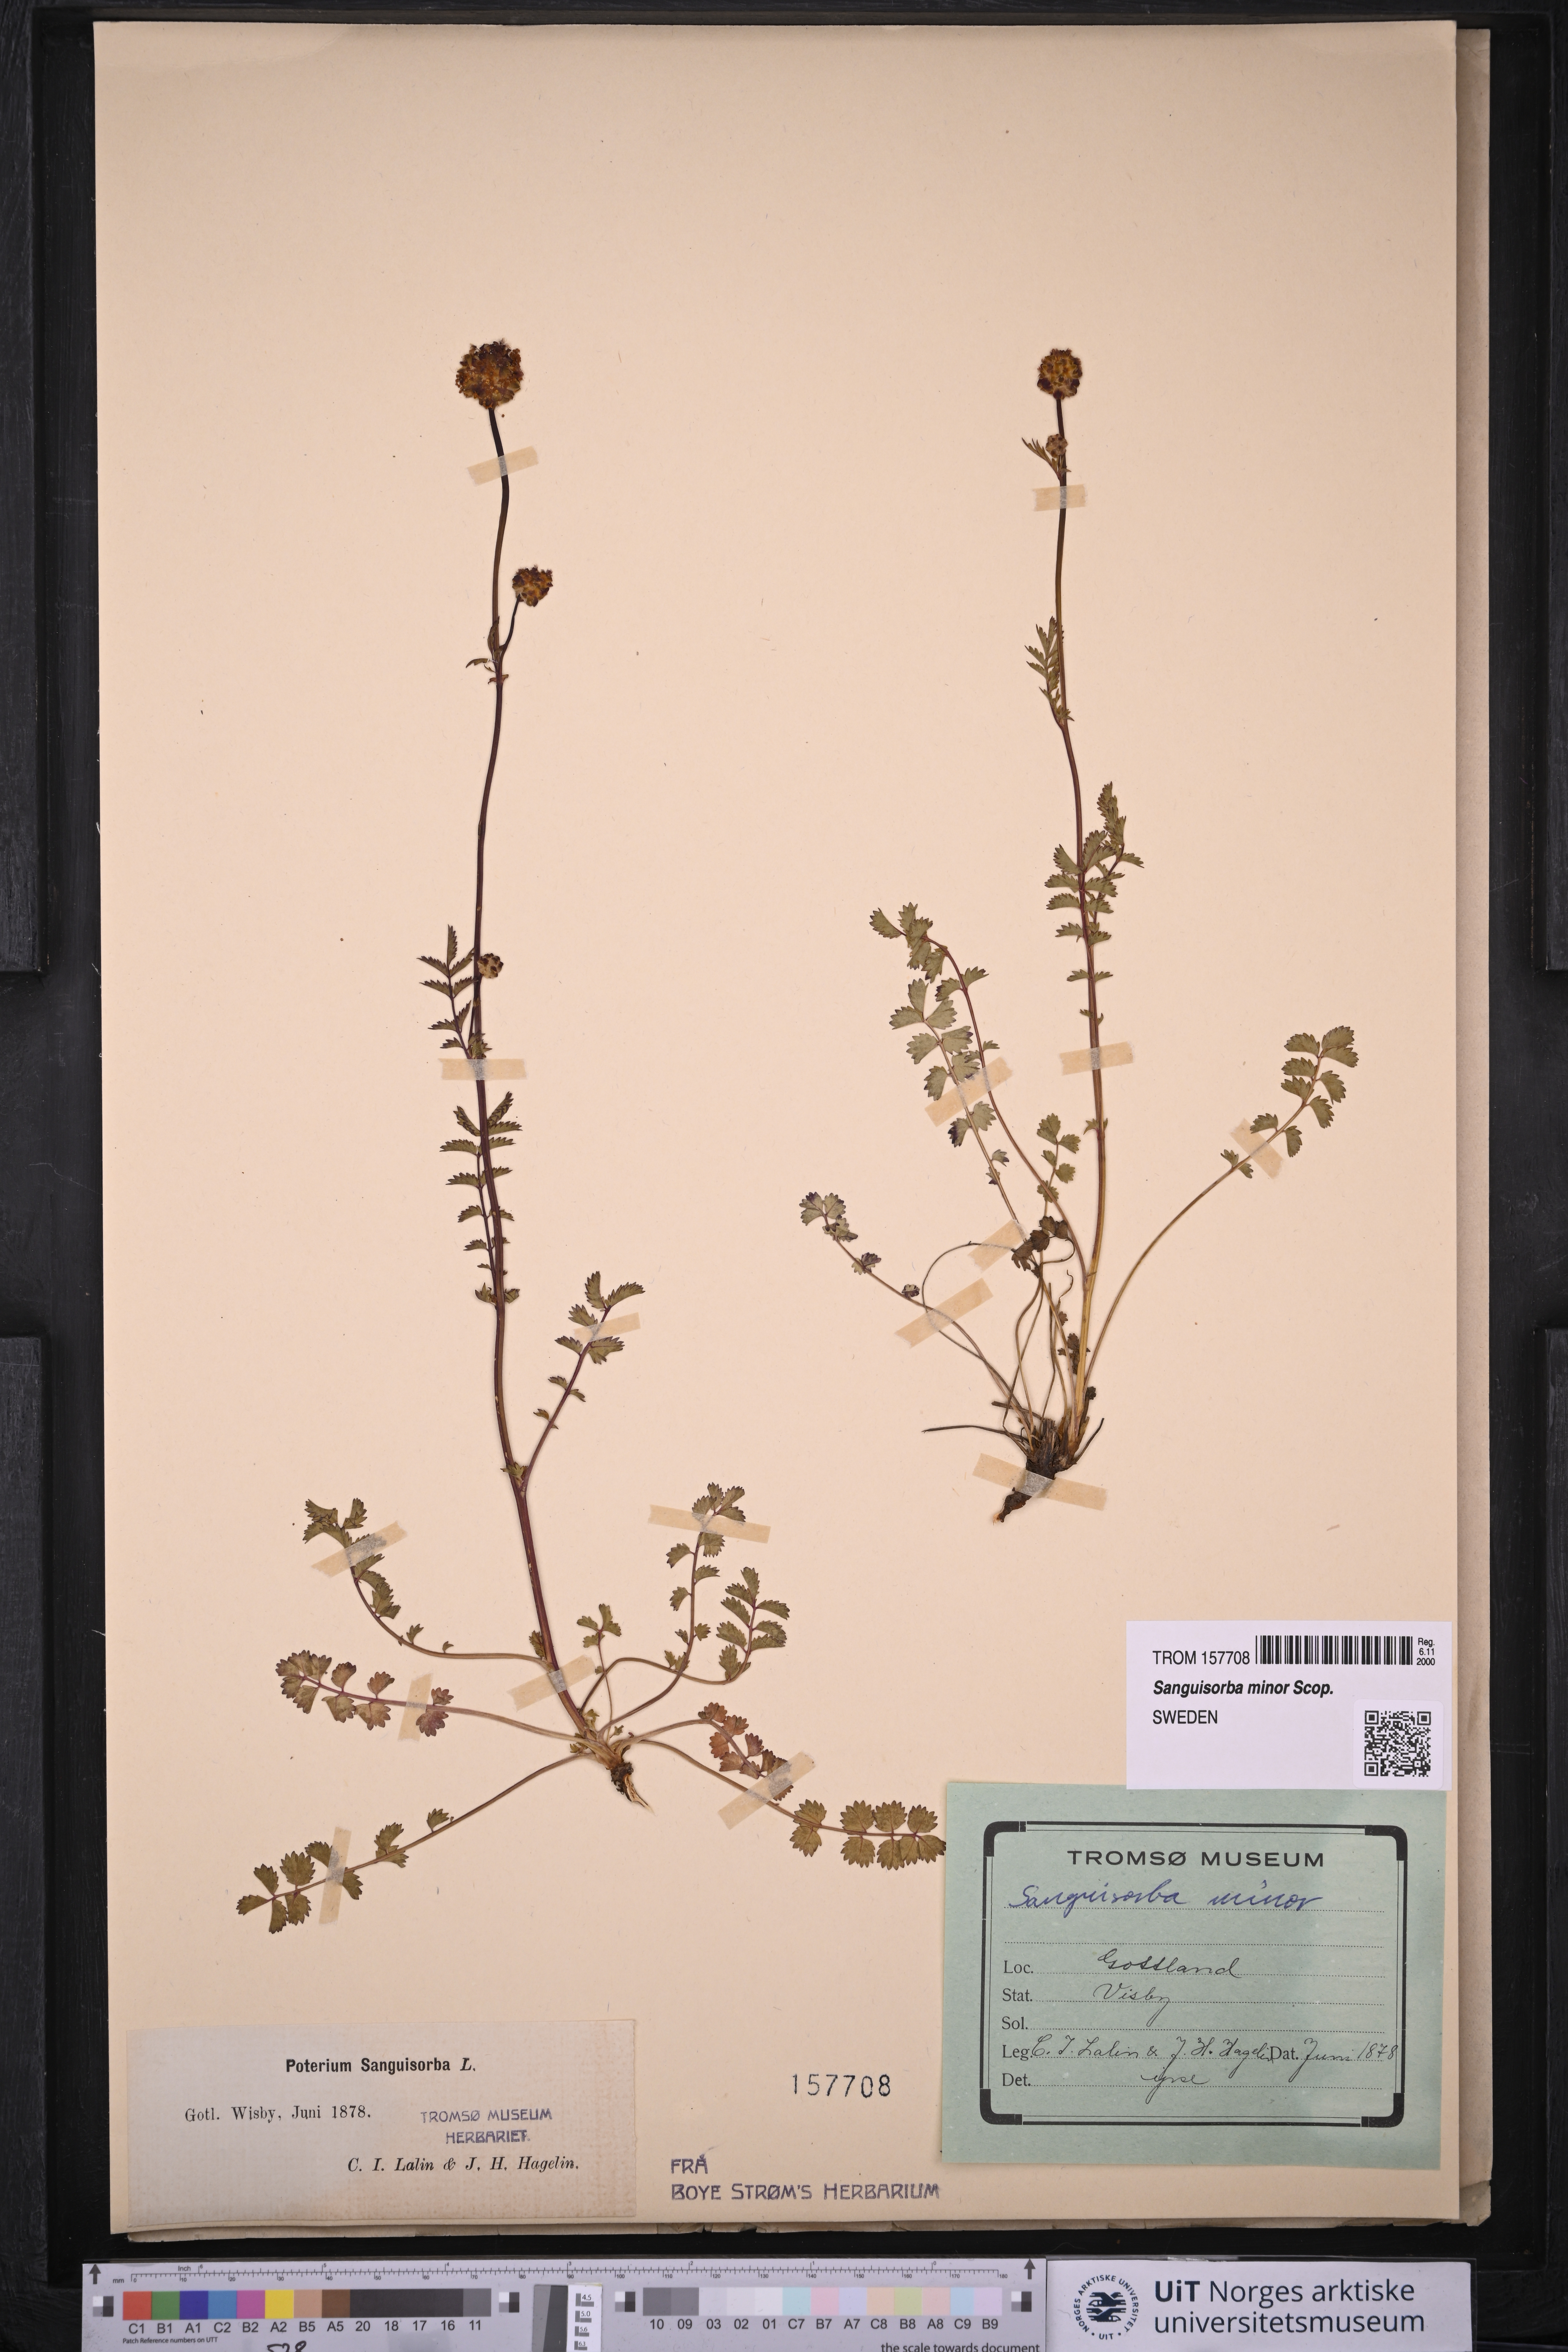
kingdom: Plantae
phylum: Tracheophyta
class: Magnoliopsida
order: Rosales
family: Rosaceae
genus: Poterium
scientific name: Poterium sanguisorba
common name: Salad burnet
